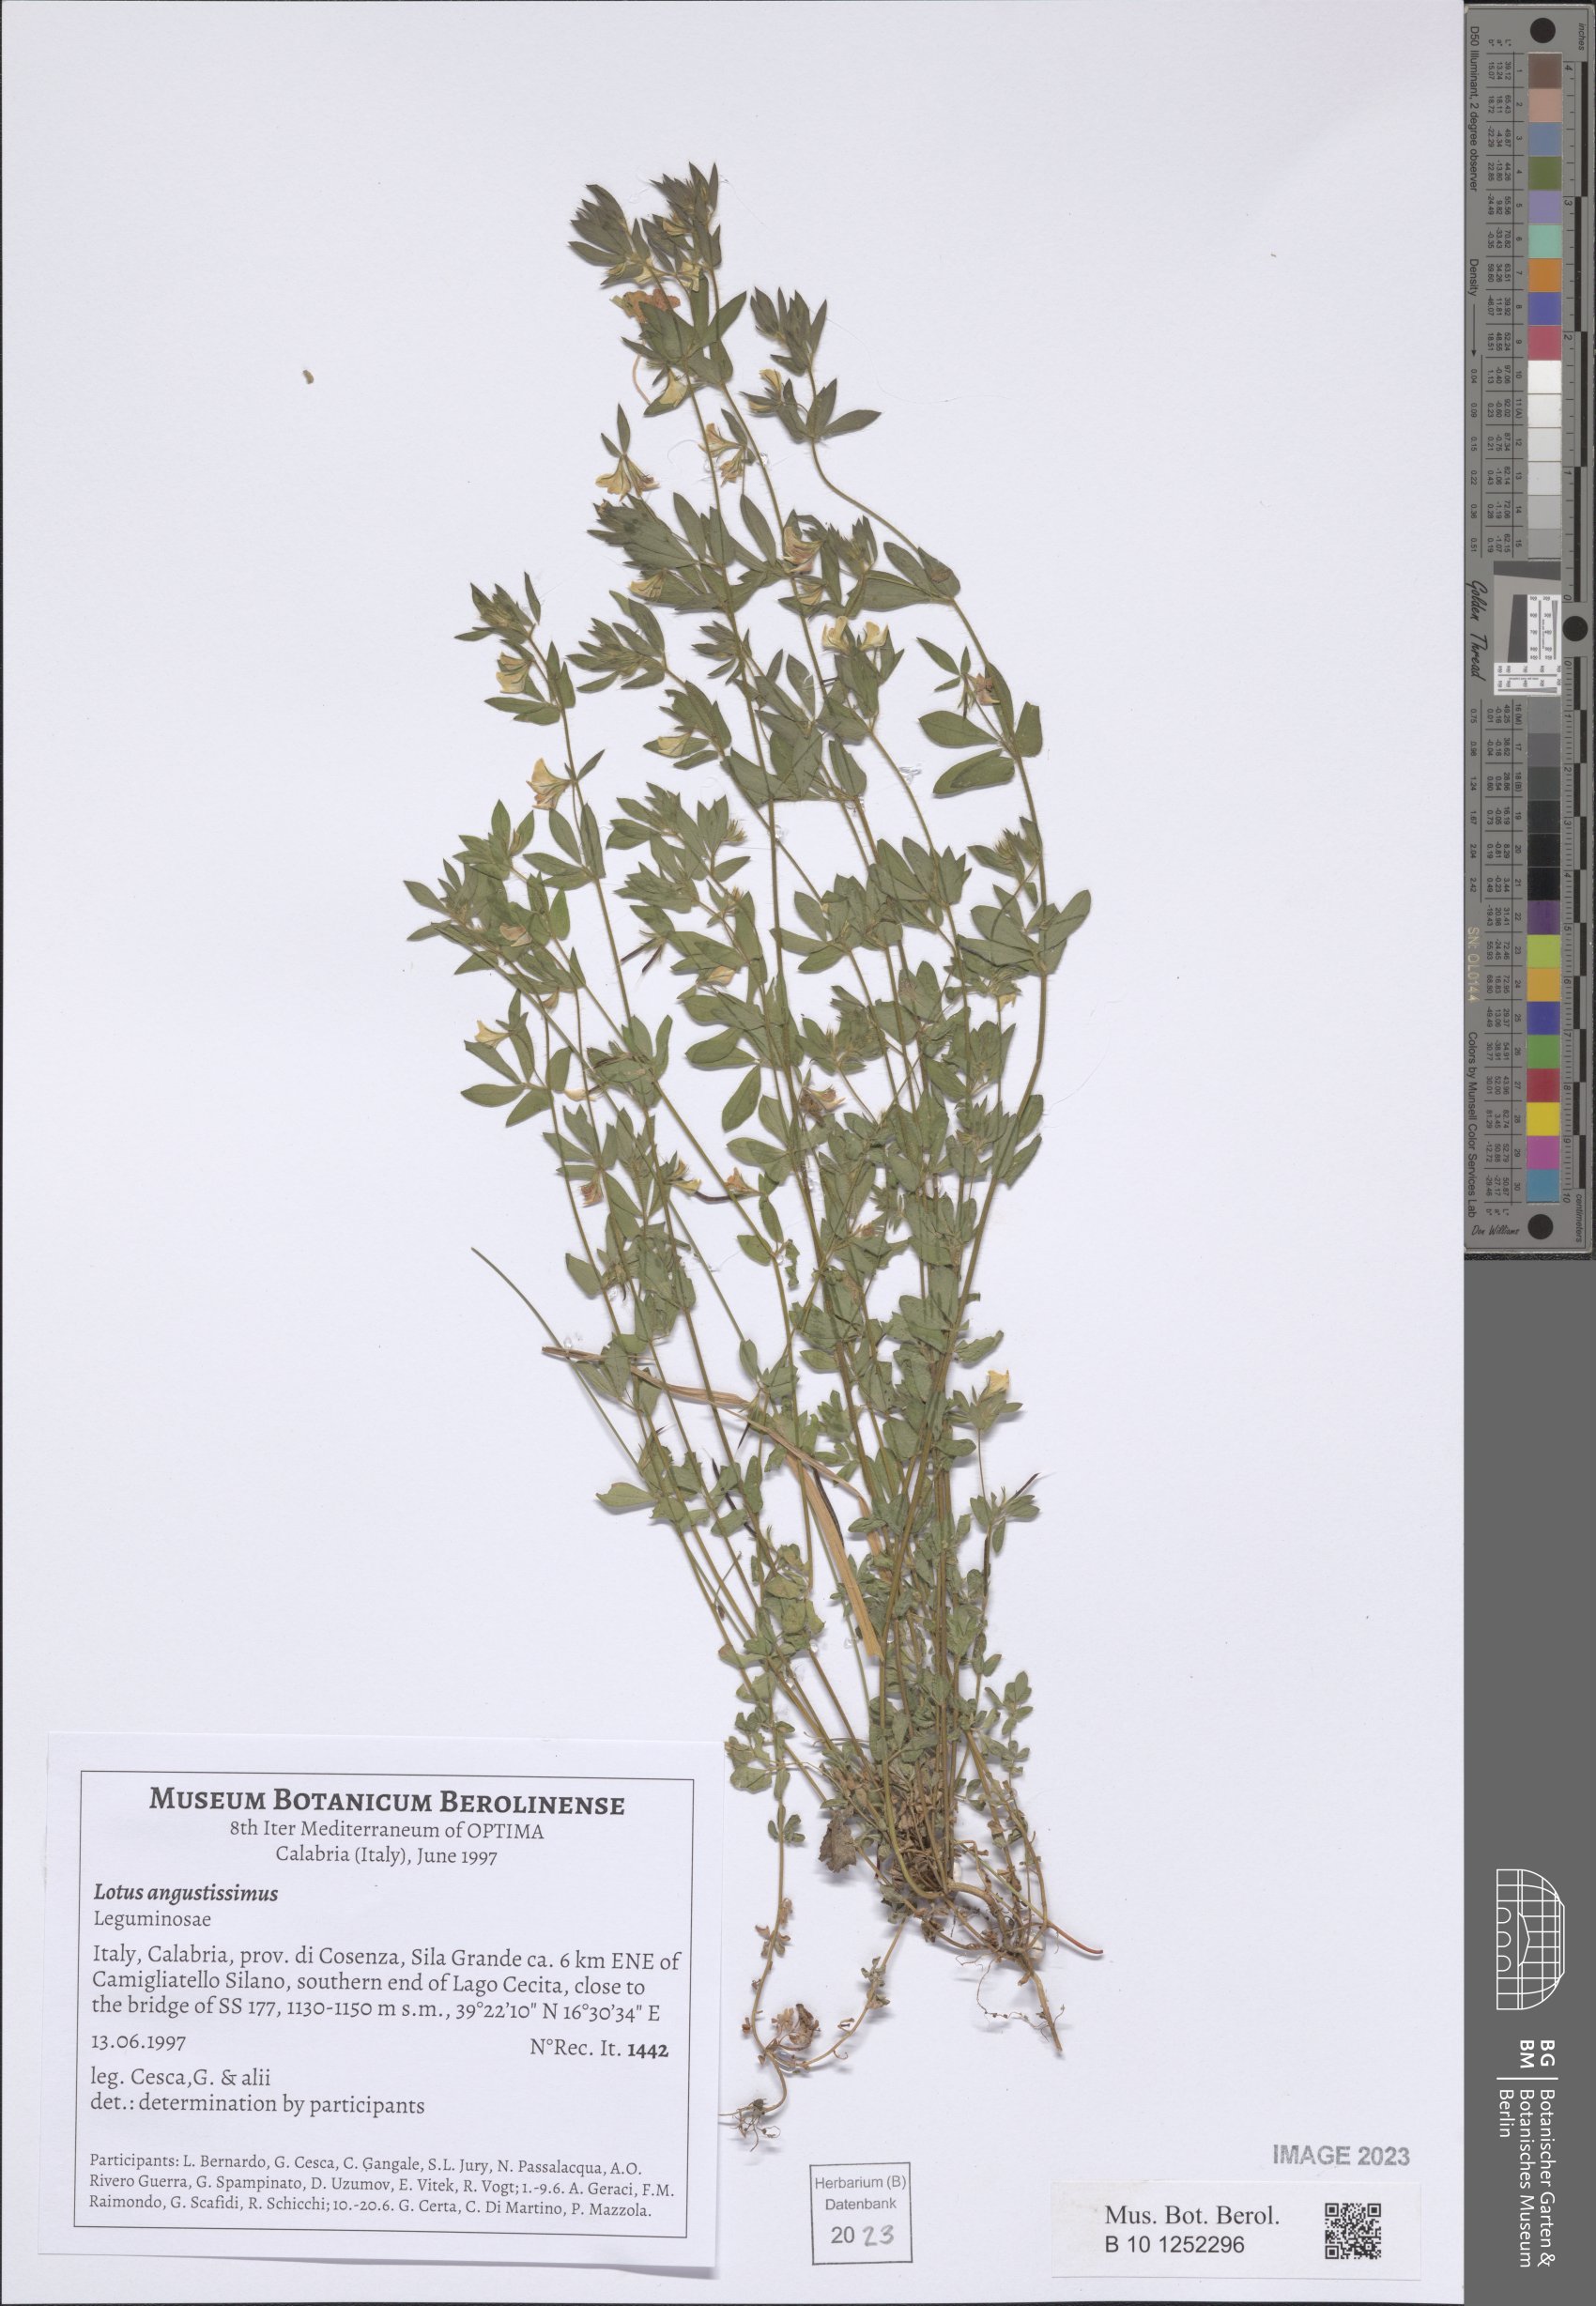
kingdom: Plantae
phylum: Tracheophyta
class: Magnoliopsida
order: Fabales
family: Fabaceae
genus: Lotus
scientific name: Lotus angustissimus
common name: Slender bird's-foot trefoil
